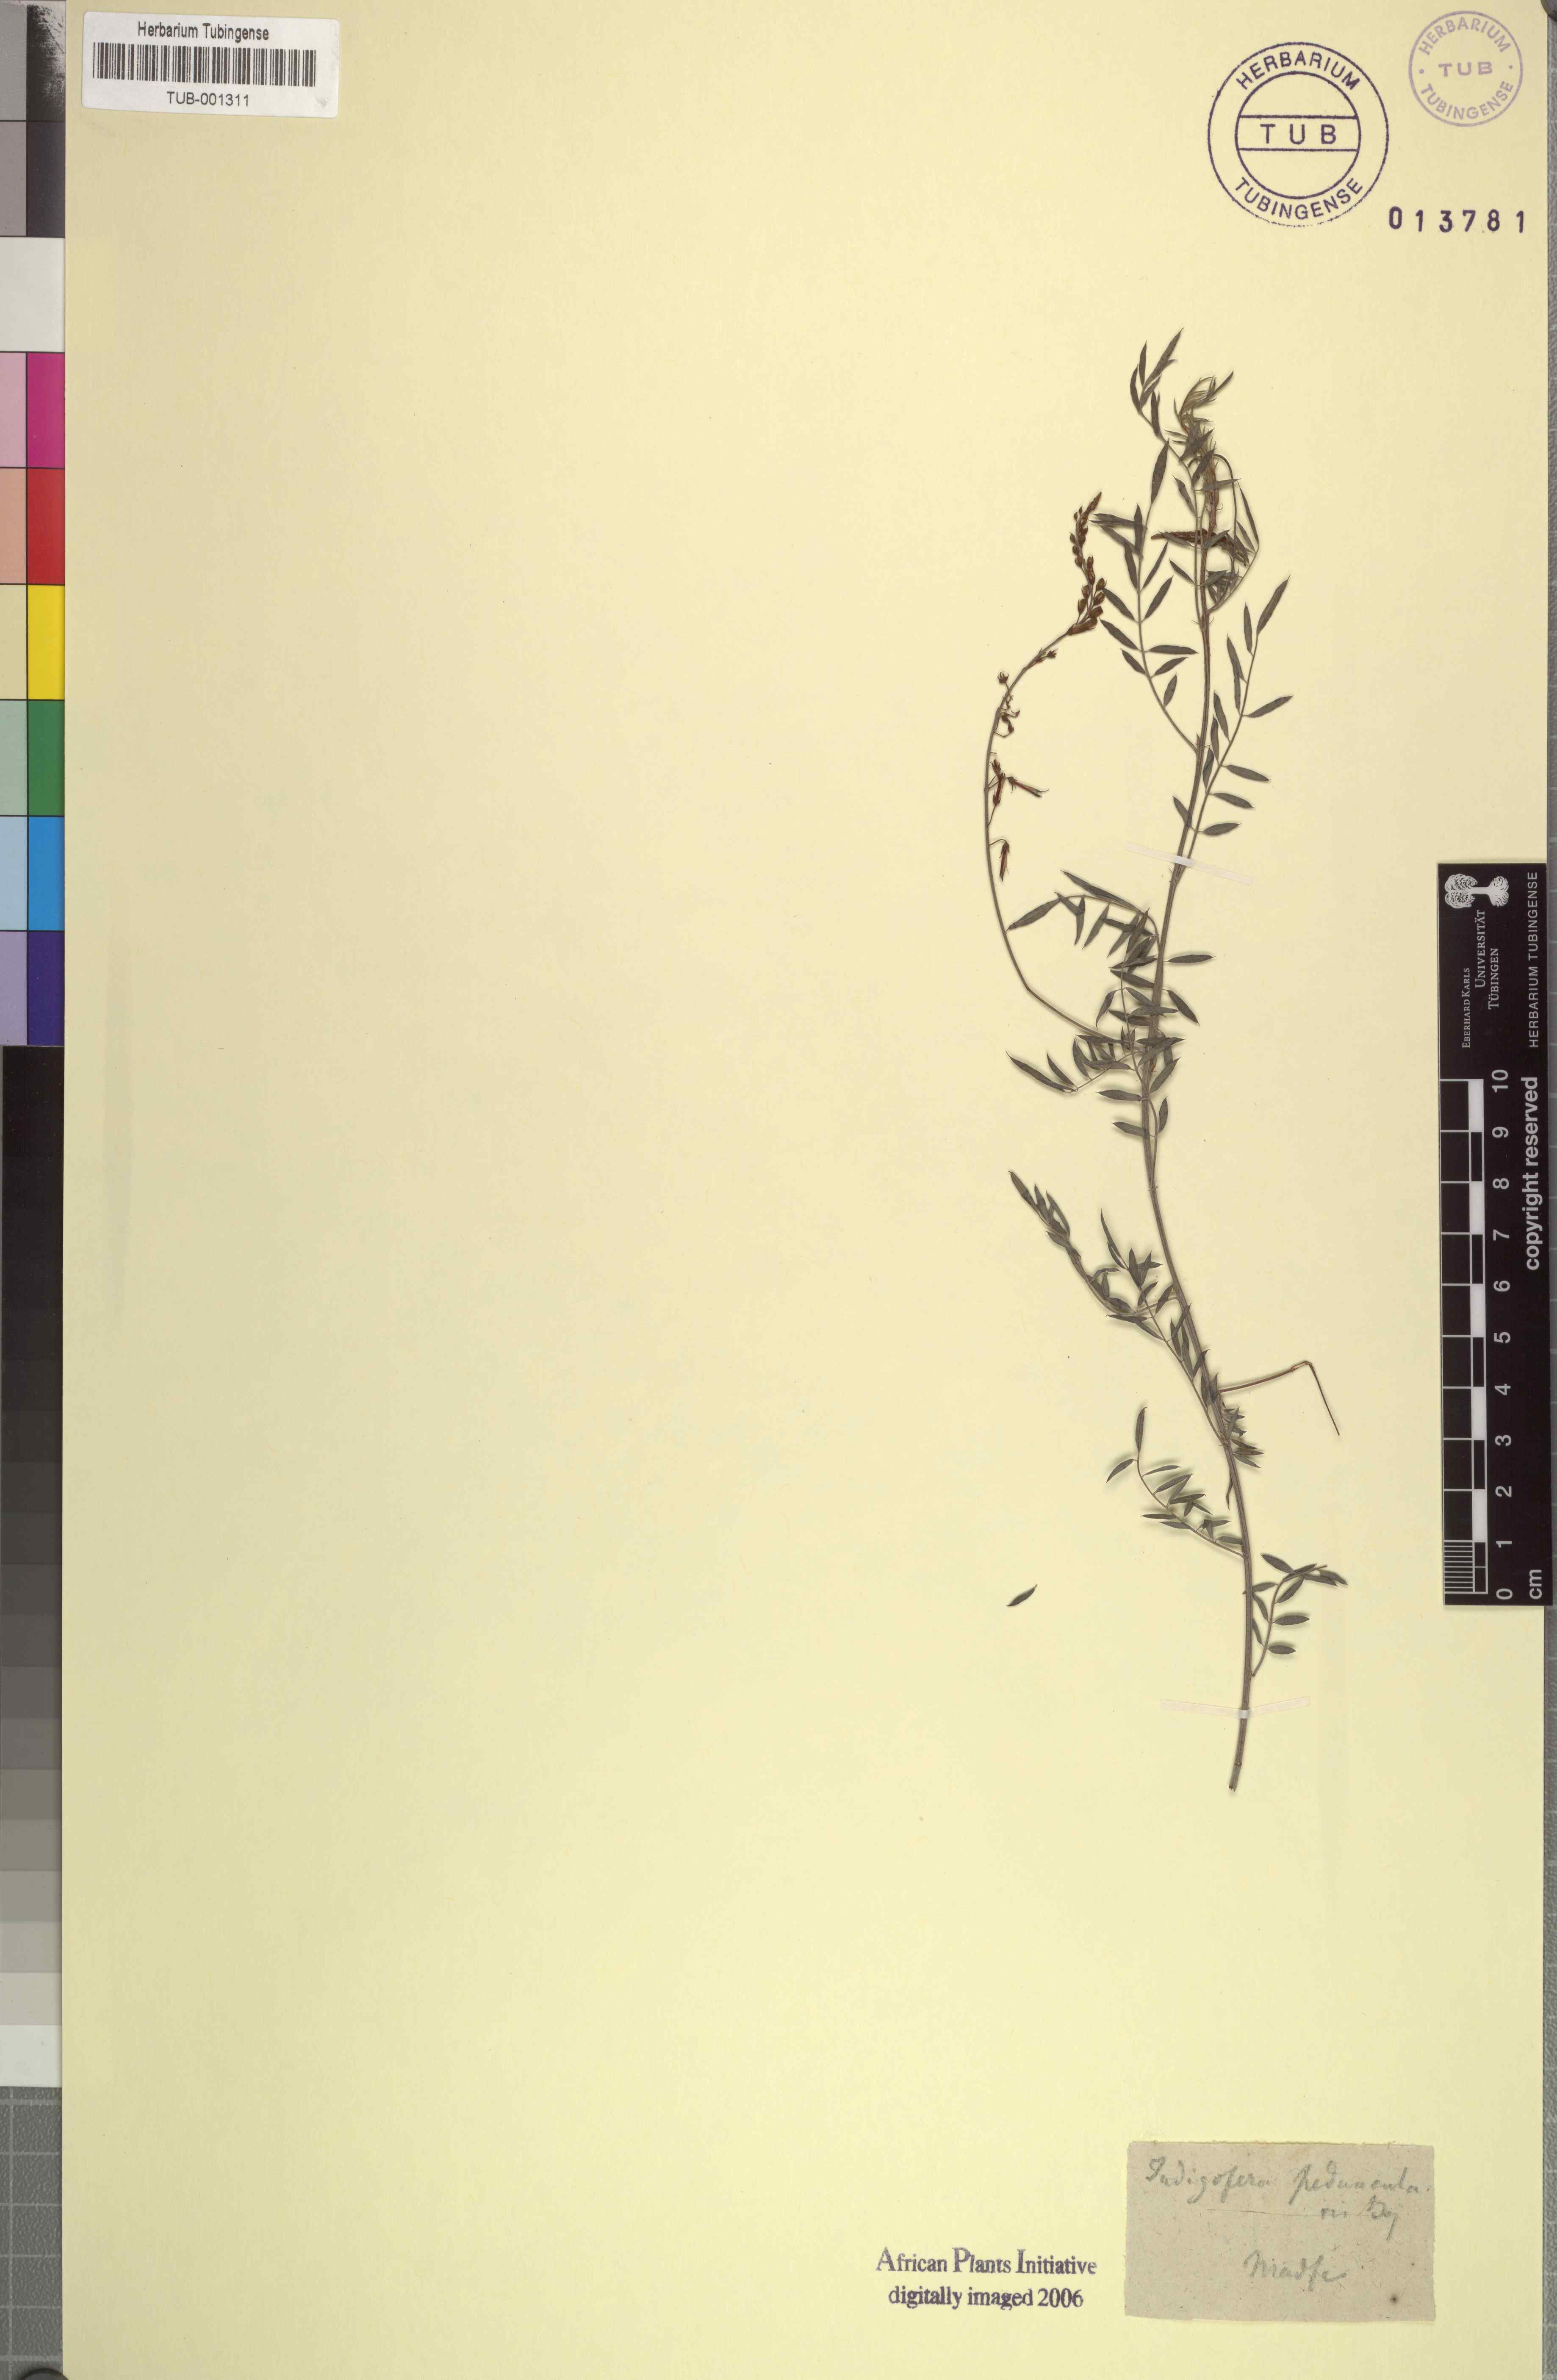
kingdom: Plantae
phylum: Tracheophyta
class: Magnoliopsida
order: Fabales
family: Fabaceae
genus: Indigofera
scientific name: Indigofera pedunculata
